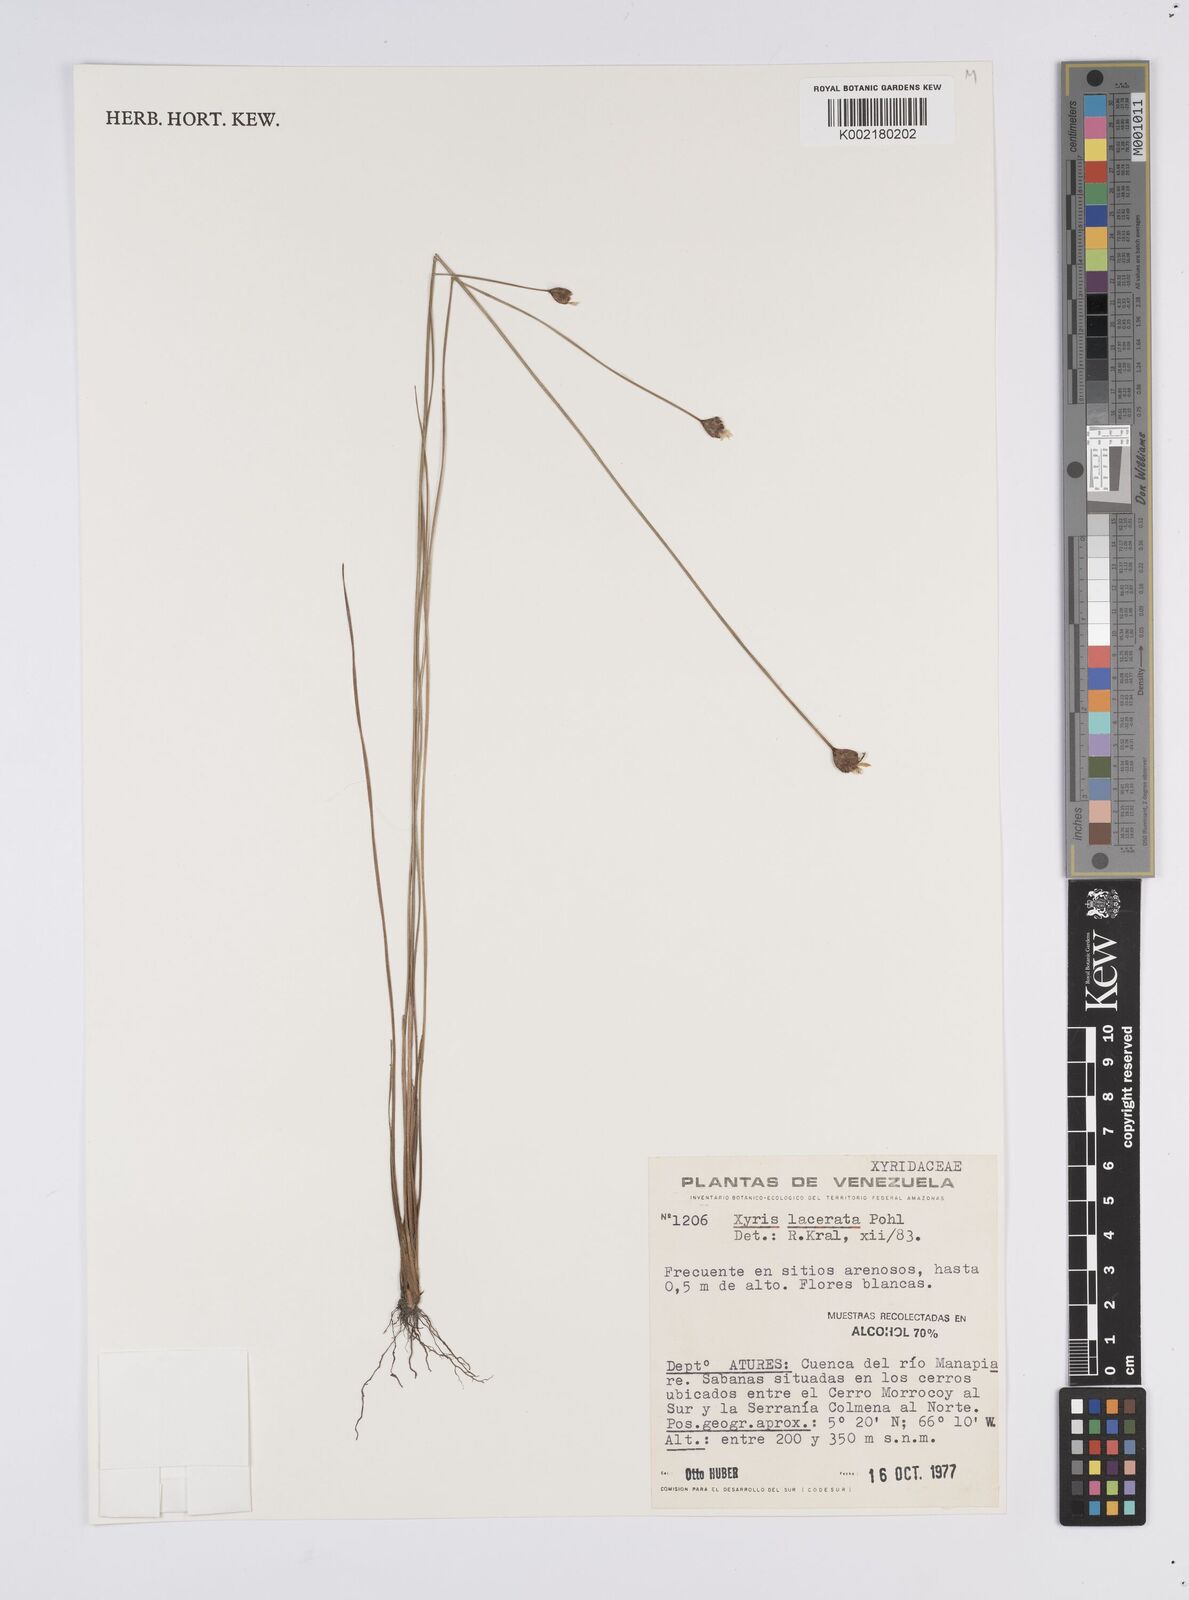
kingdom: Plantae
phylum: Tracheophyta
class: Liliopsida
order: Poales
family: Xyridaceae
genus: Xyris
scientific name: Xyris lacerata
